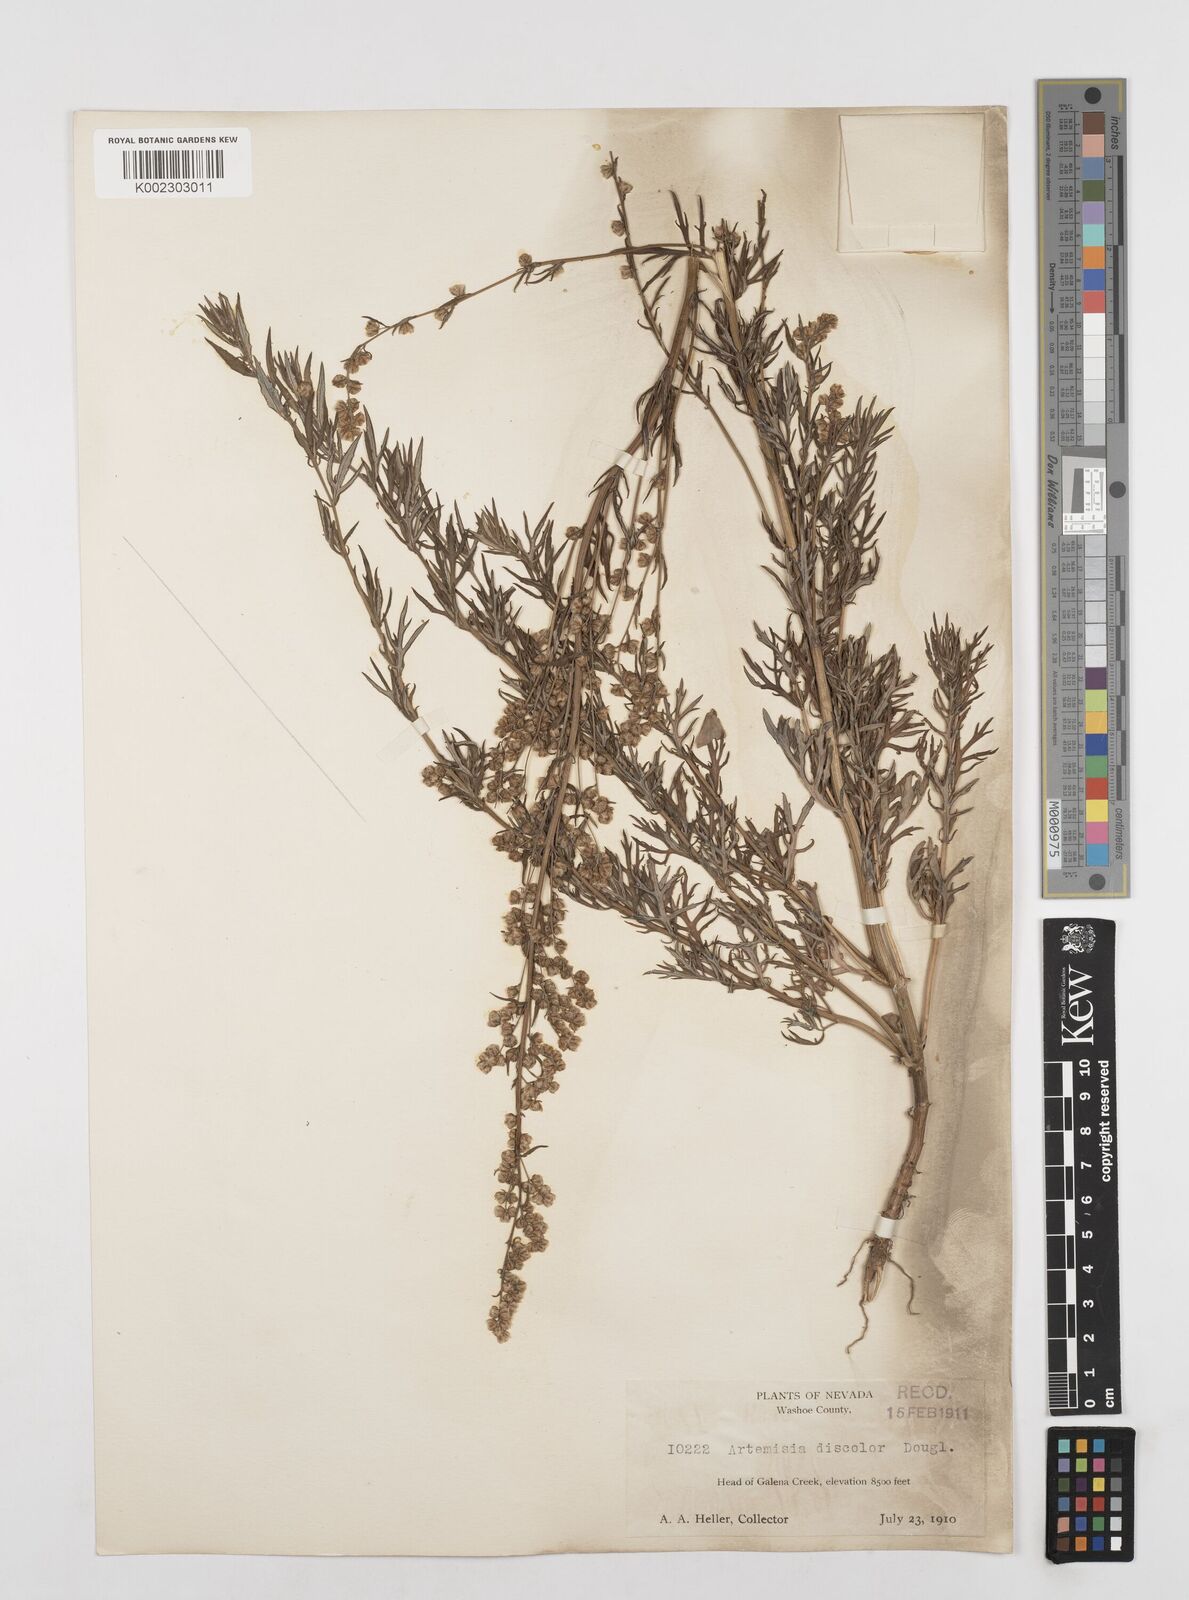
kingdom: Plantae
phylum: Tracheophyta
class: Magnoliopsida
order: Asterales
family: Asteraceae
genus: Artemisia
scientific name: Artemisia michauxiana
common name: Lemon sagewort
